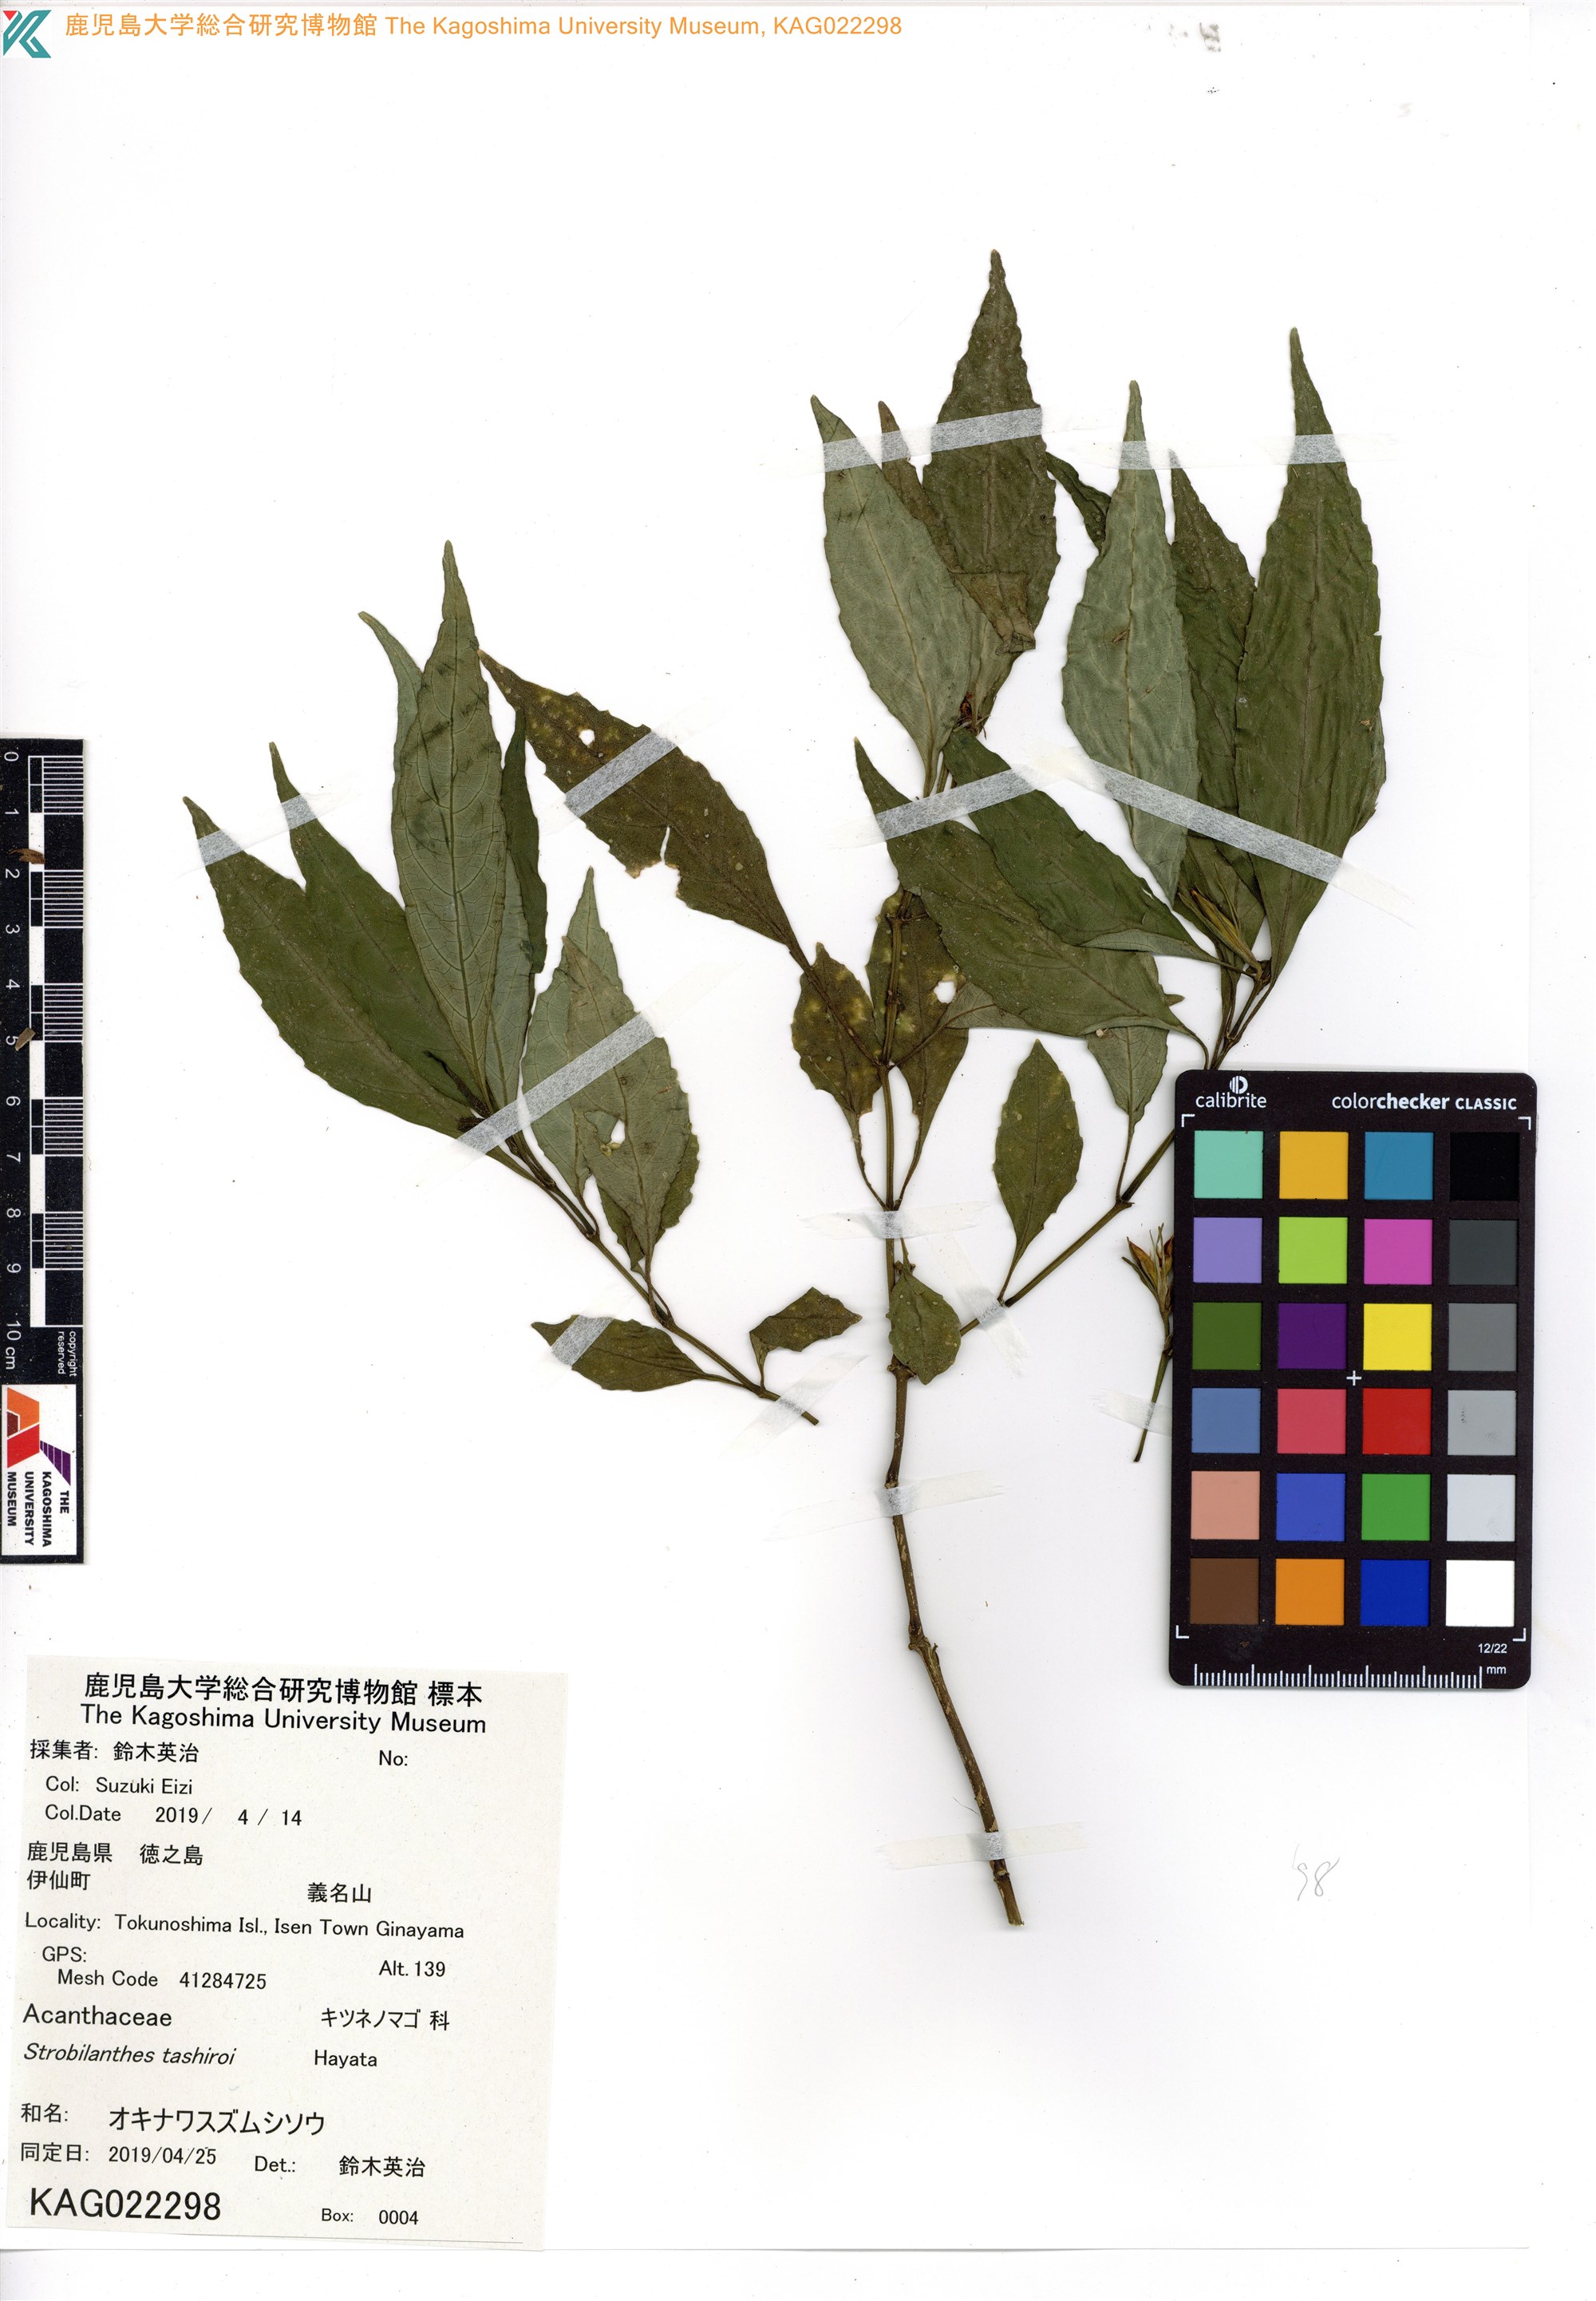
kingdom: Plantae
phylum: Tracheophyta
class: Magnoliopsida
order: Lamiales
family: Acanthaceae
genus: Strobilanthes
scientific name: Strobilanthes flexicaulis
